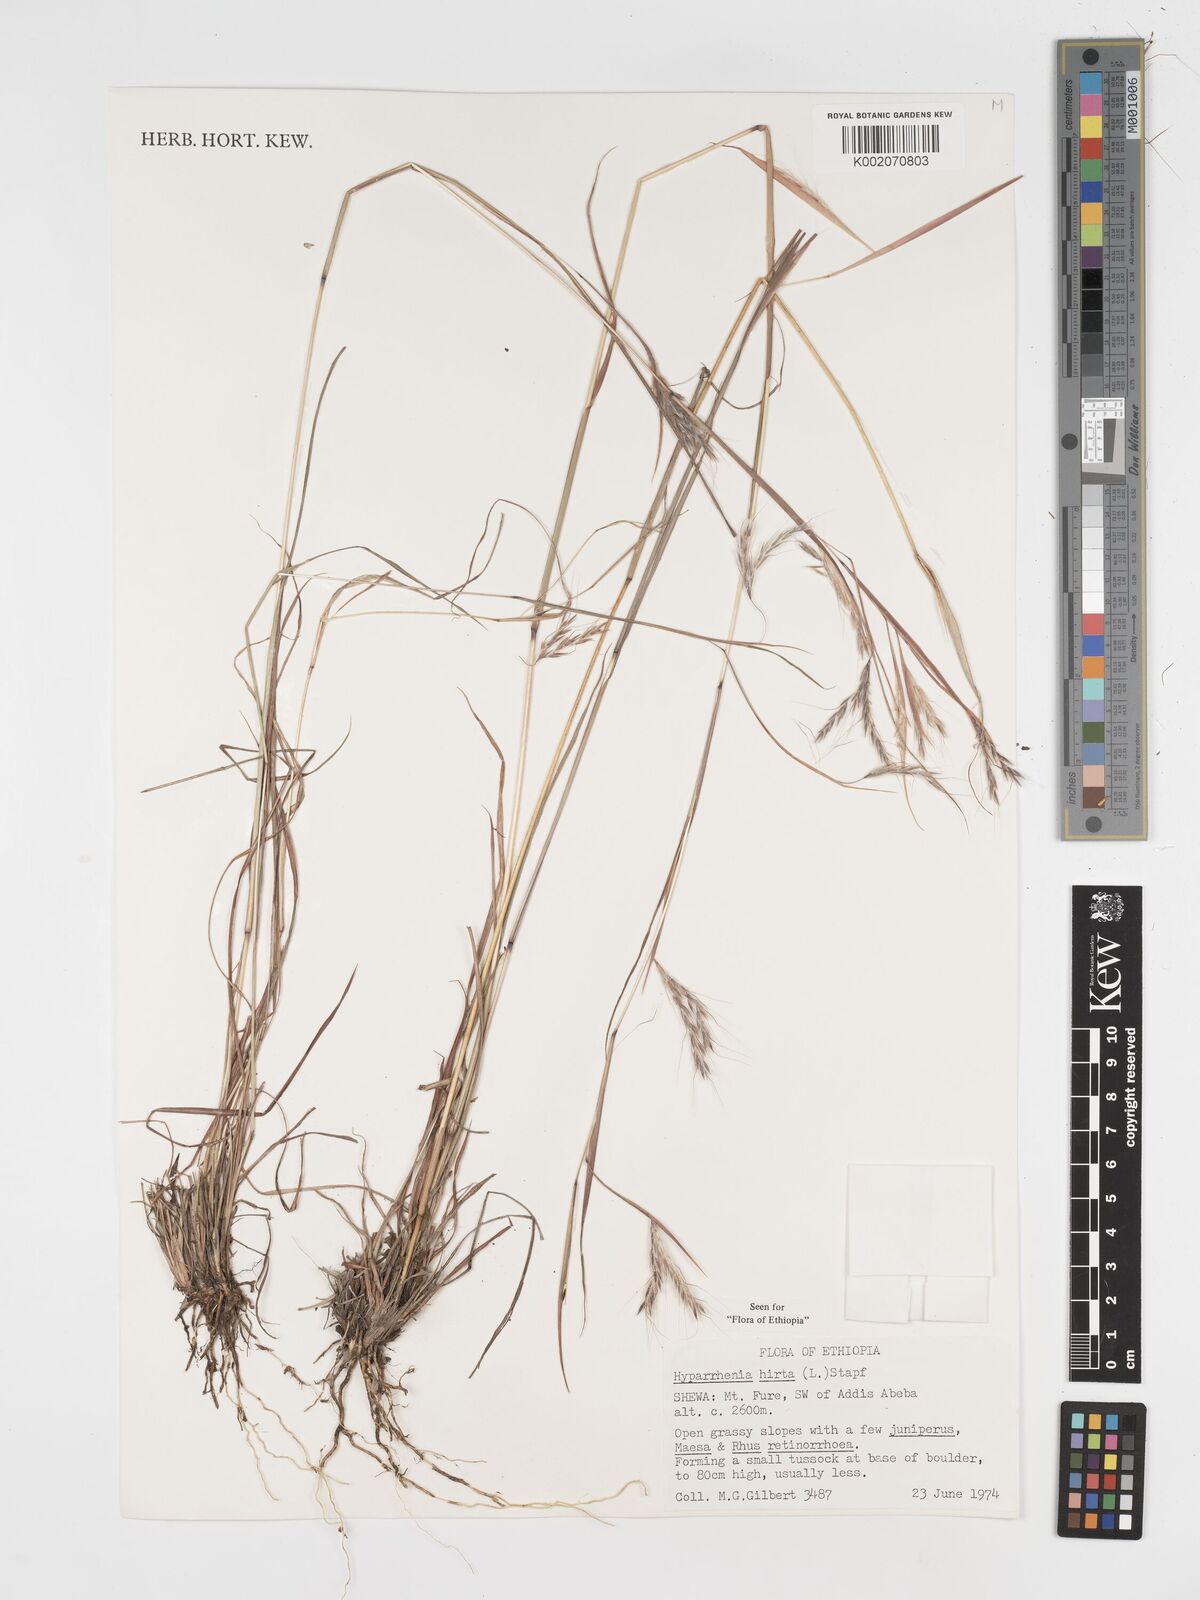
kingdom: Plantae
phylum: Tracheophyta
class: Liliopsida
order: Poales
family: Poaceae
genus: Hyparrhenia
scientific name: Hyparrhenia hirta
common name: Thatching grass
